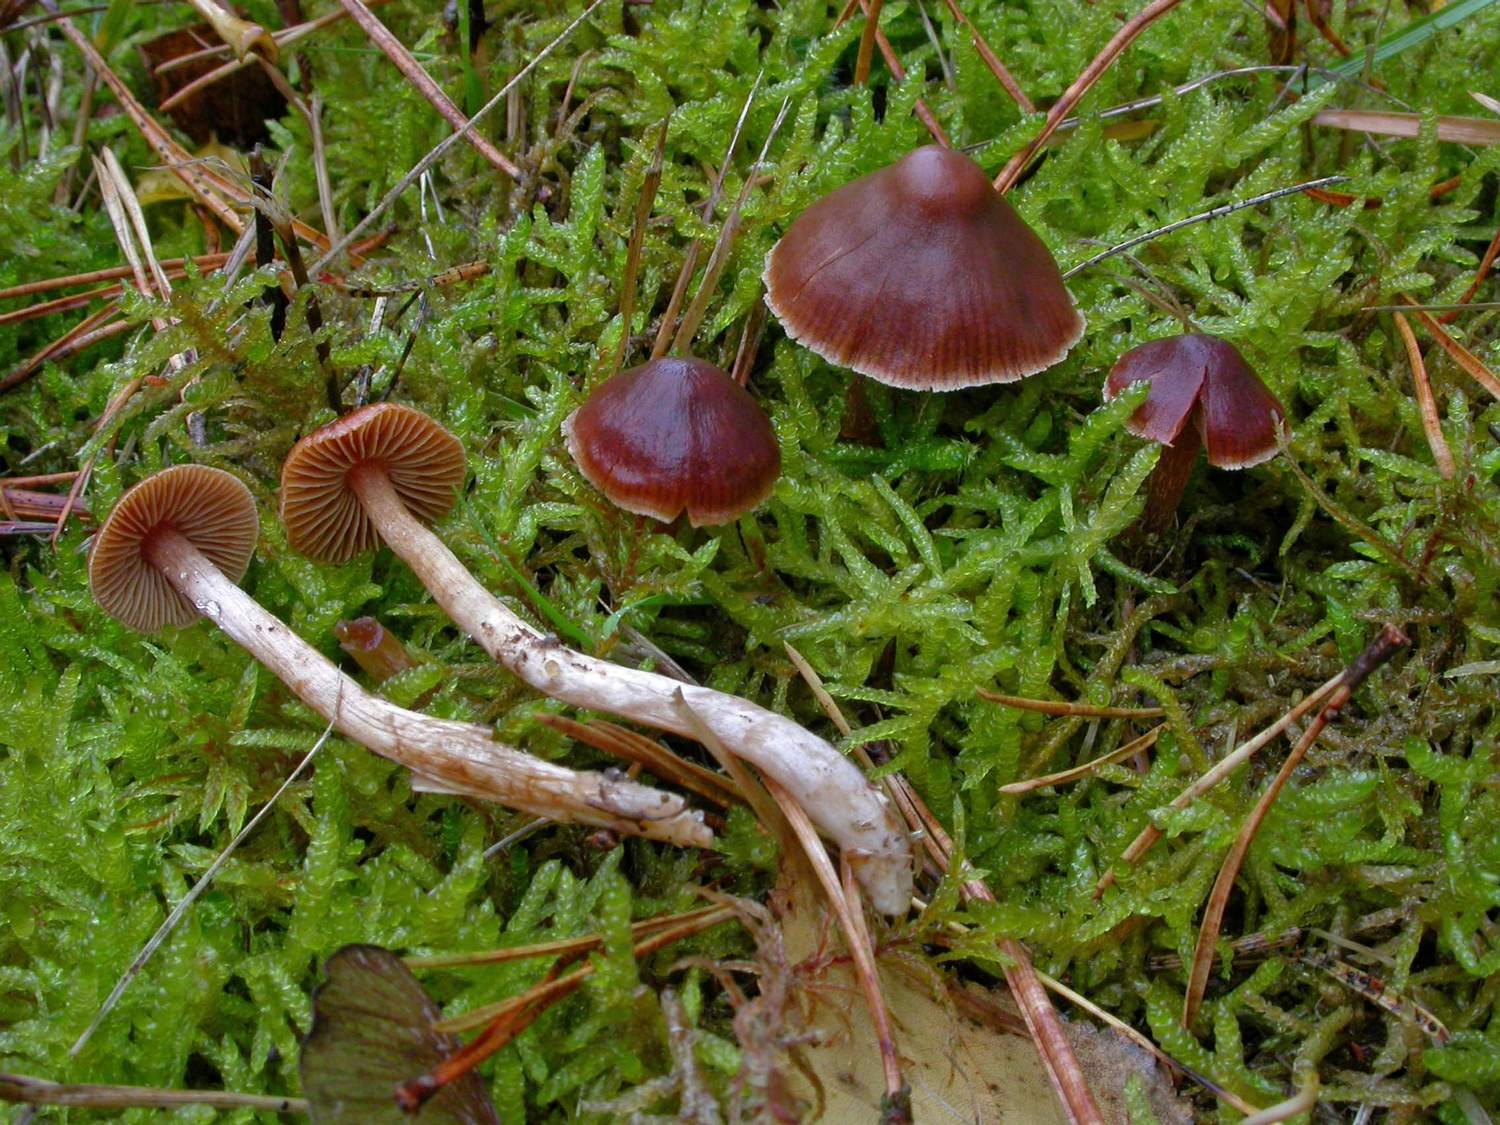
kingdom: Fungi
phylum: Basidiomycota
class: Agaricomycetes
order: Agaricales
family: Cortinariaceae
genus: Cortinarius
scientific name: Cortinarius
